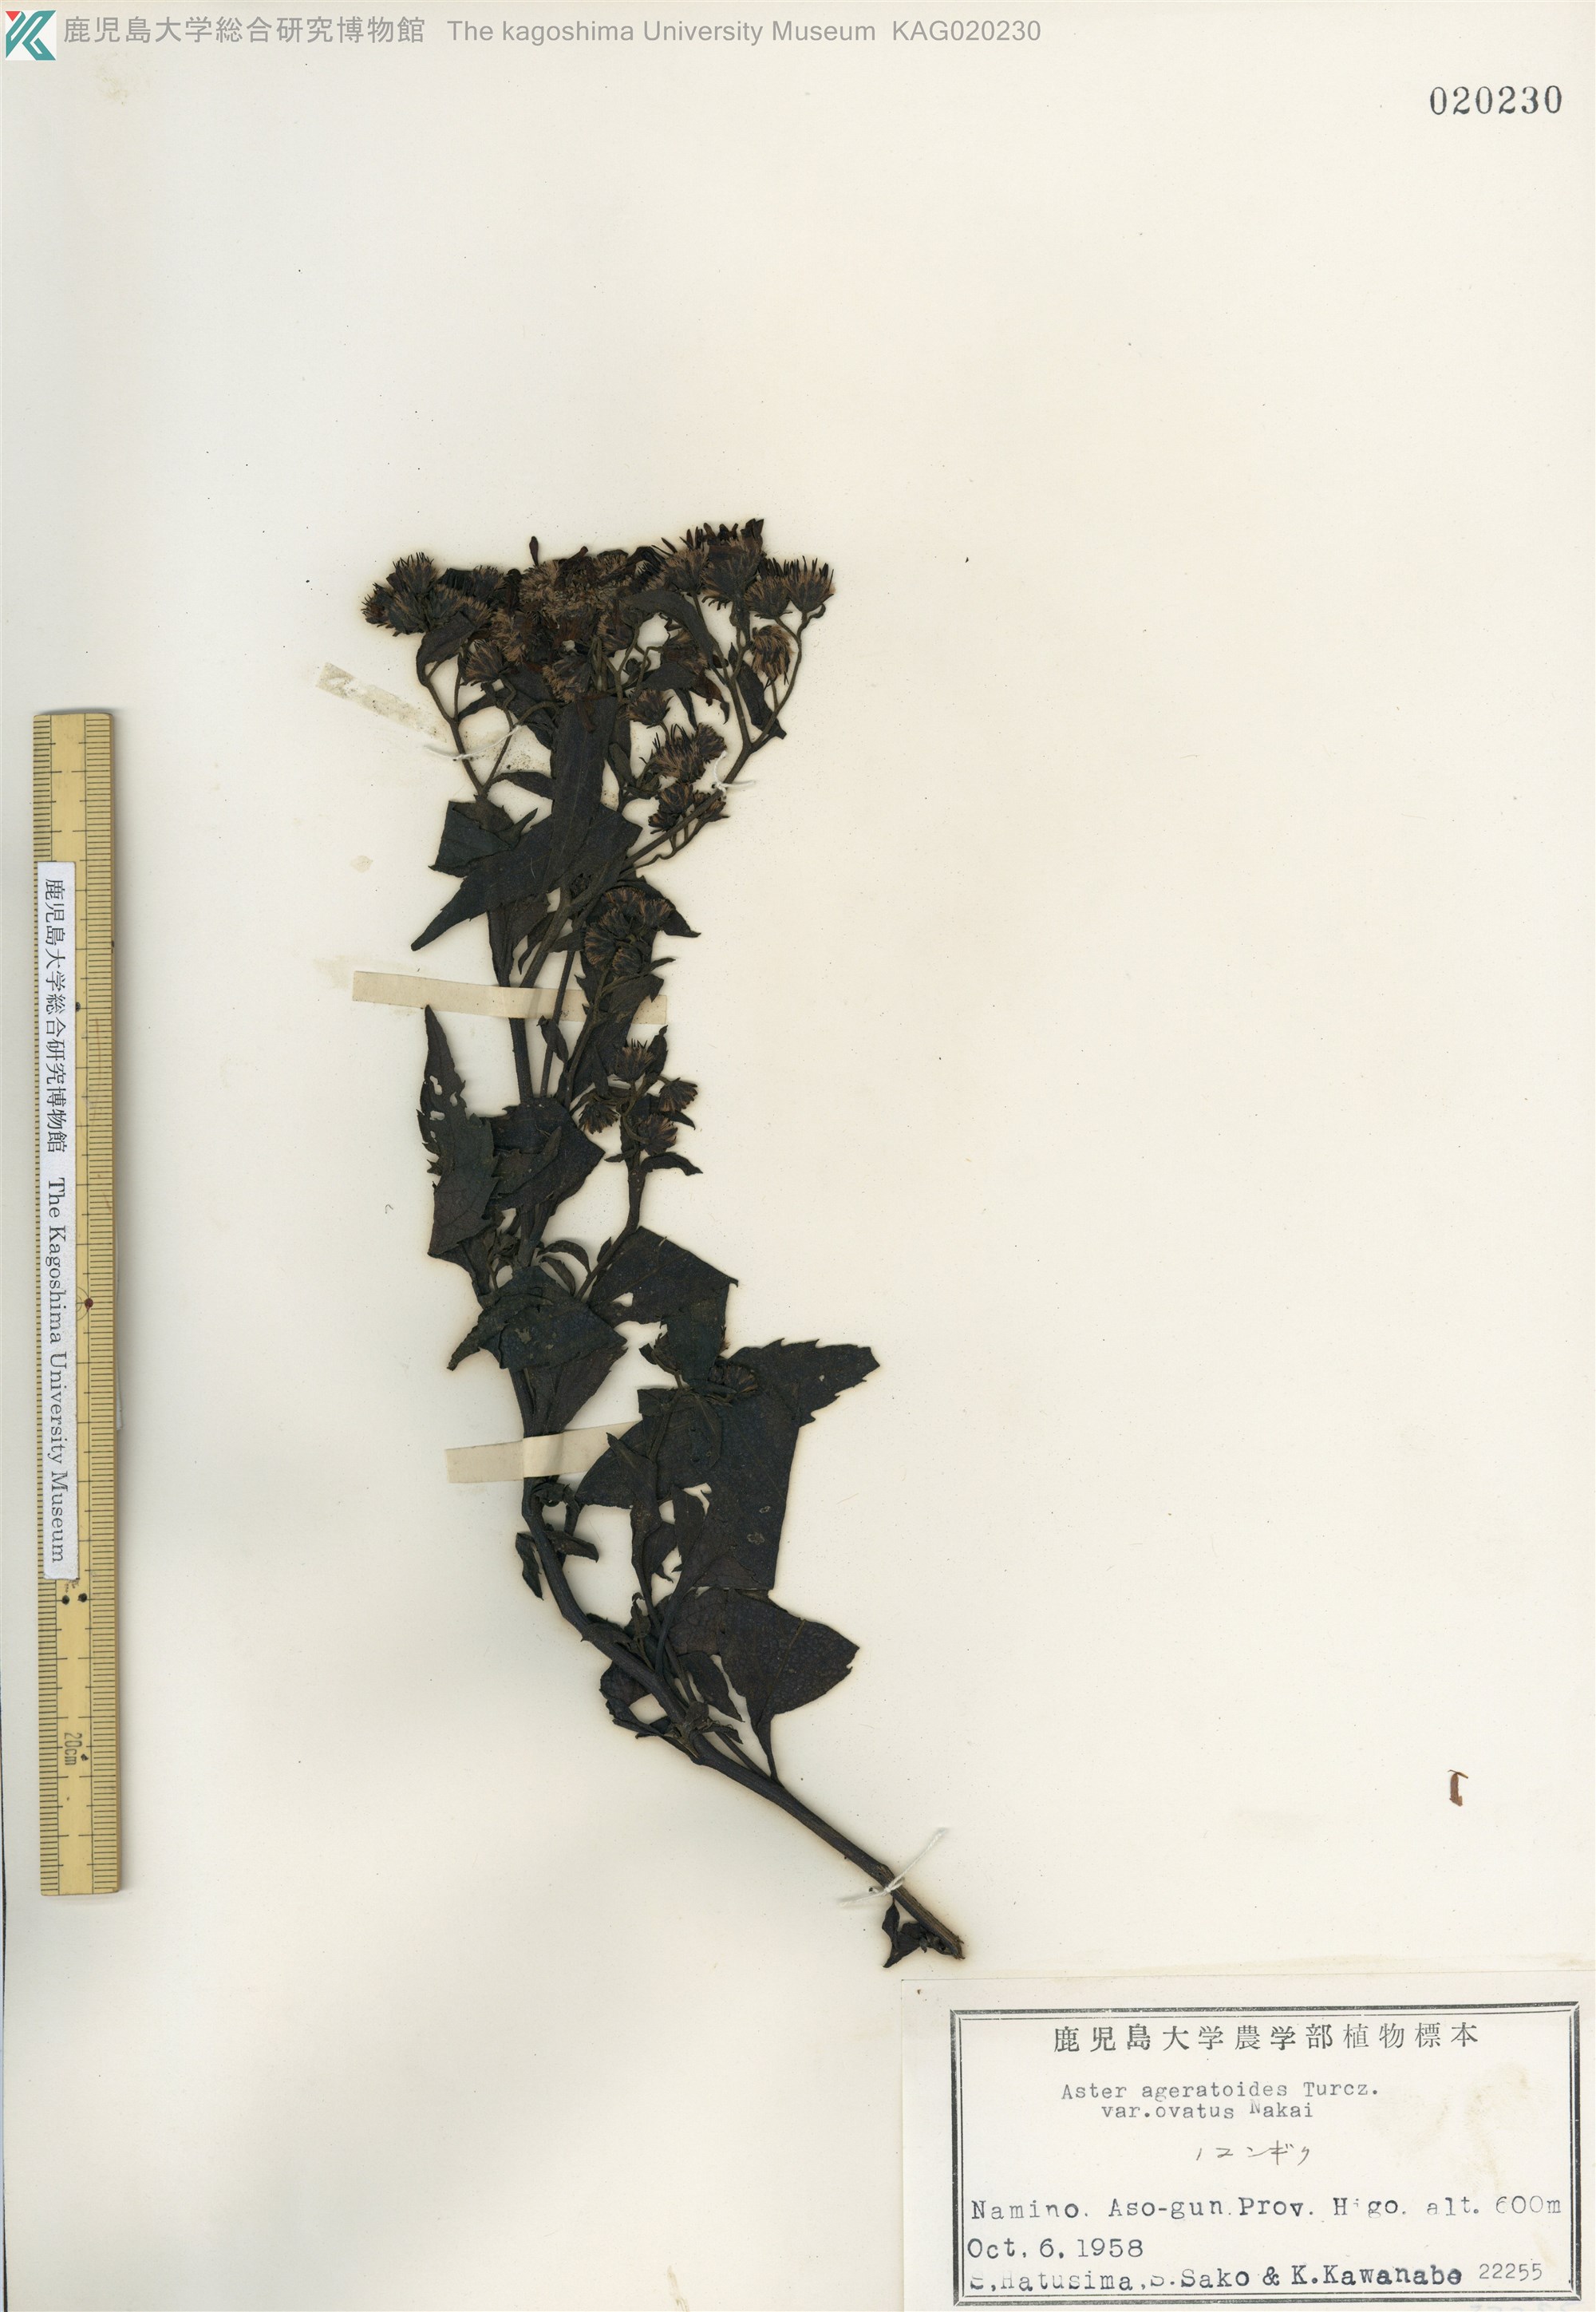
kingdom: Plantae
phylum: Tracheophyta
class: Magnoliopsida
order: Asterales
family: Asteraceae
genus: Aster
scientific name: Aster microcephalus
